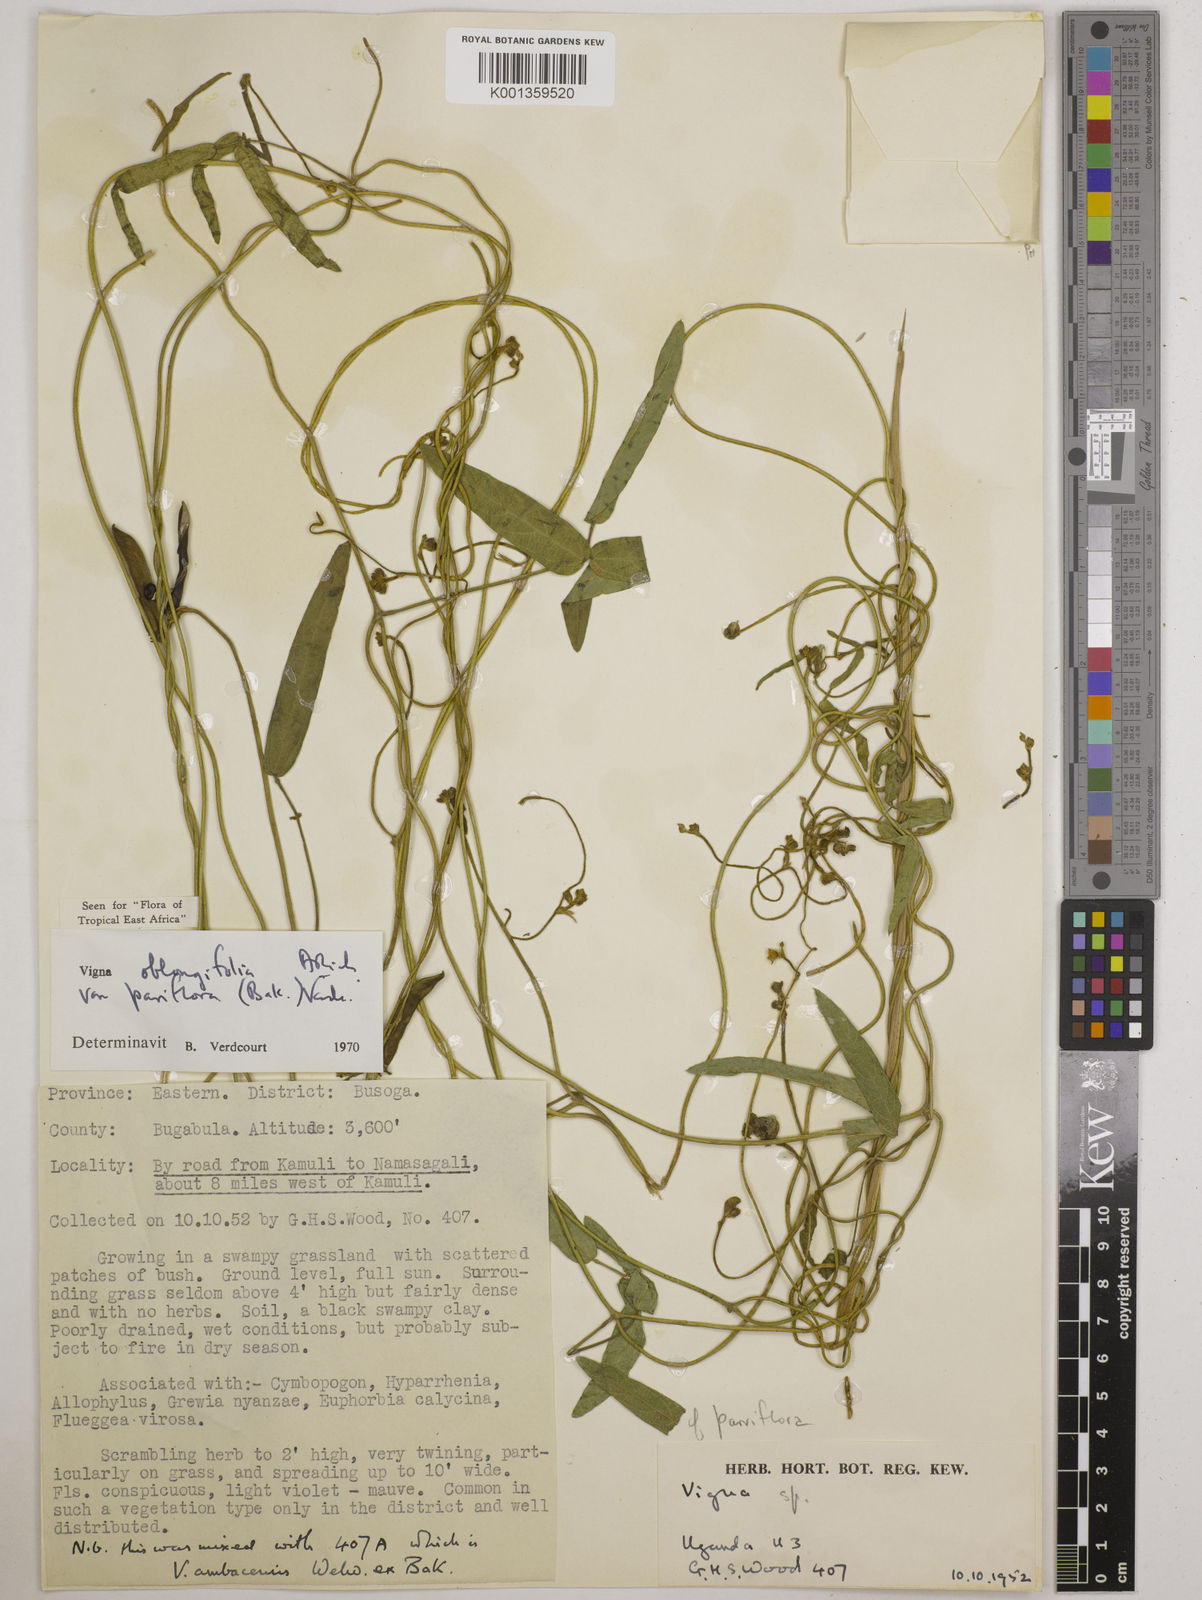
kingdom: Plantae
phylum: Tracheophyta
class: Magnoliopsida
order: Fabales
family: Fabaceae
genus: Vigna
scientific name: Vigna
